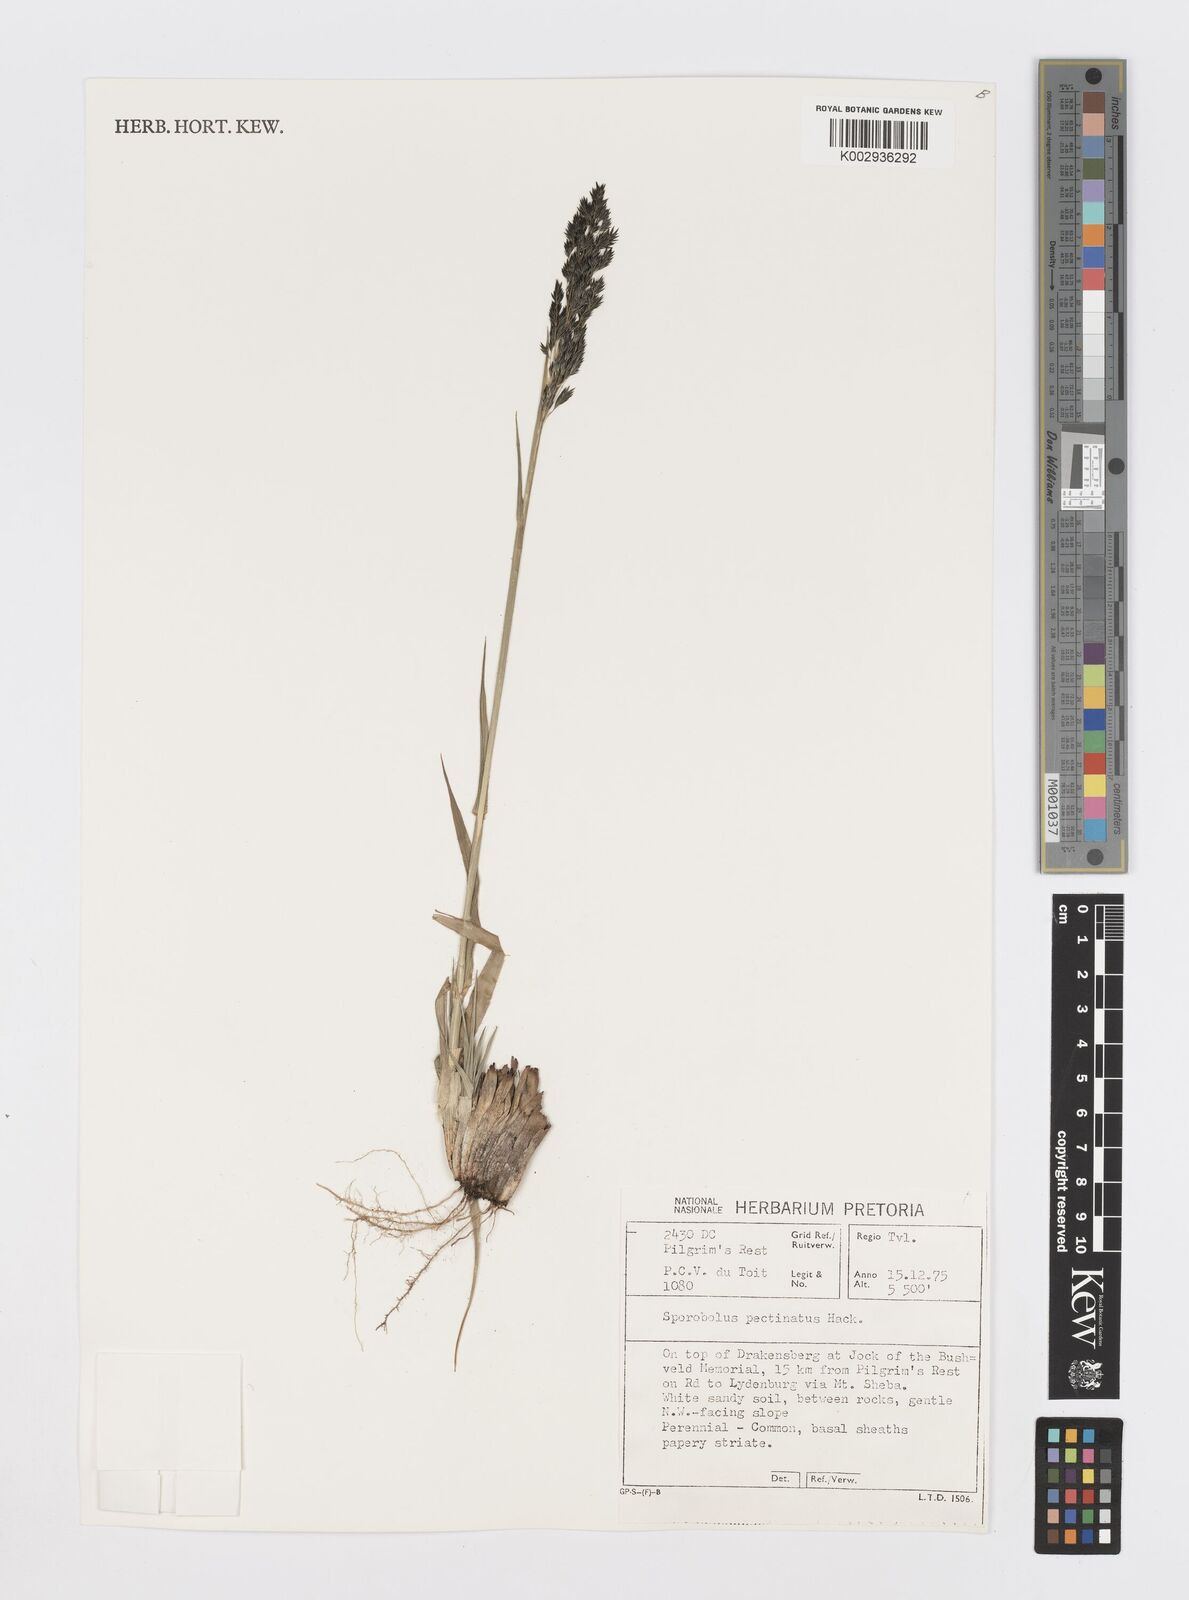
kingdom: Plantae
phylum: Tracheophyta
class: Liliopsida
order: Poales
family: Poaceae
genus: Sporobolus
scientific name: Sporobolus pectinatus
